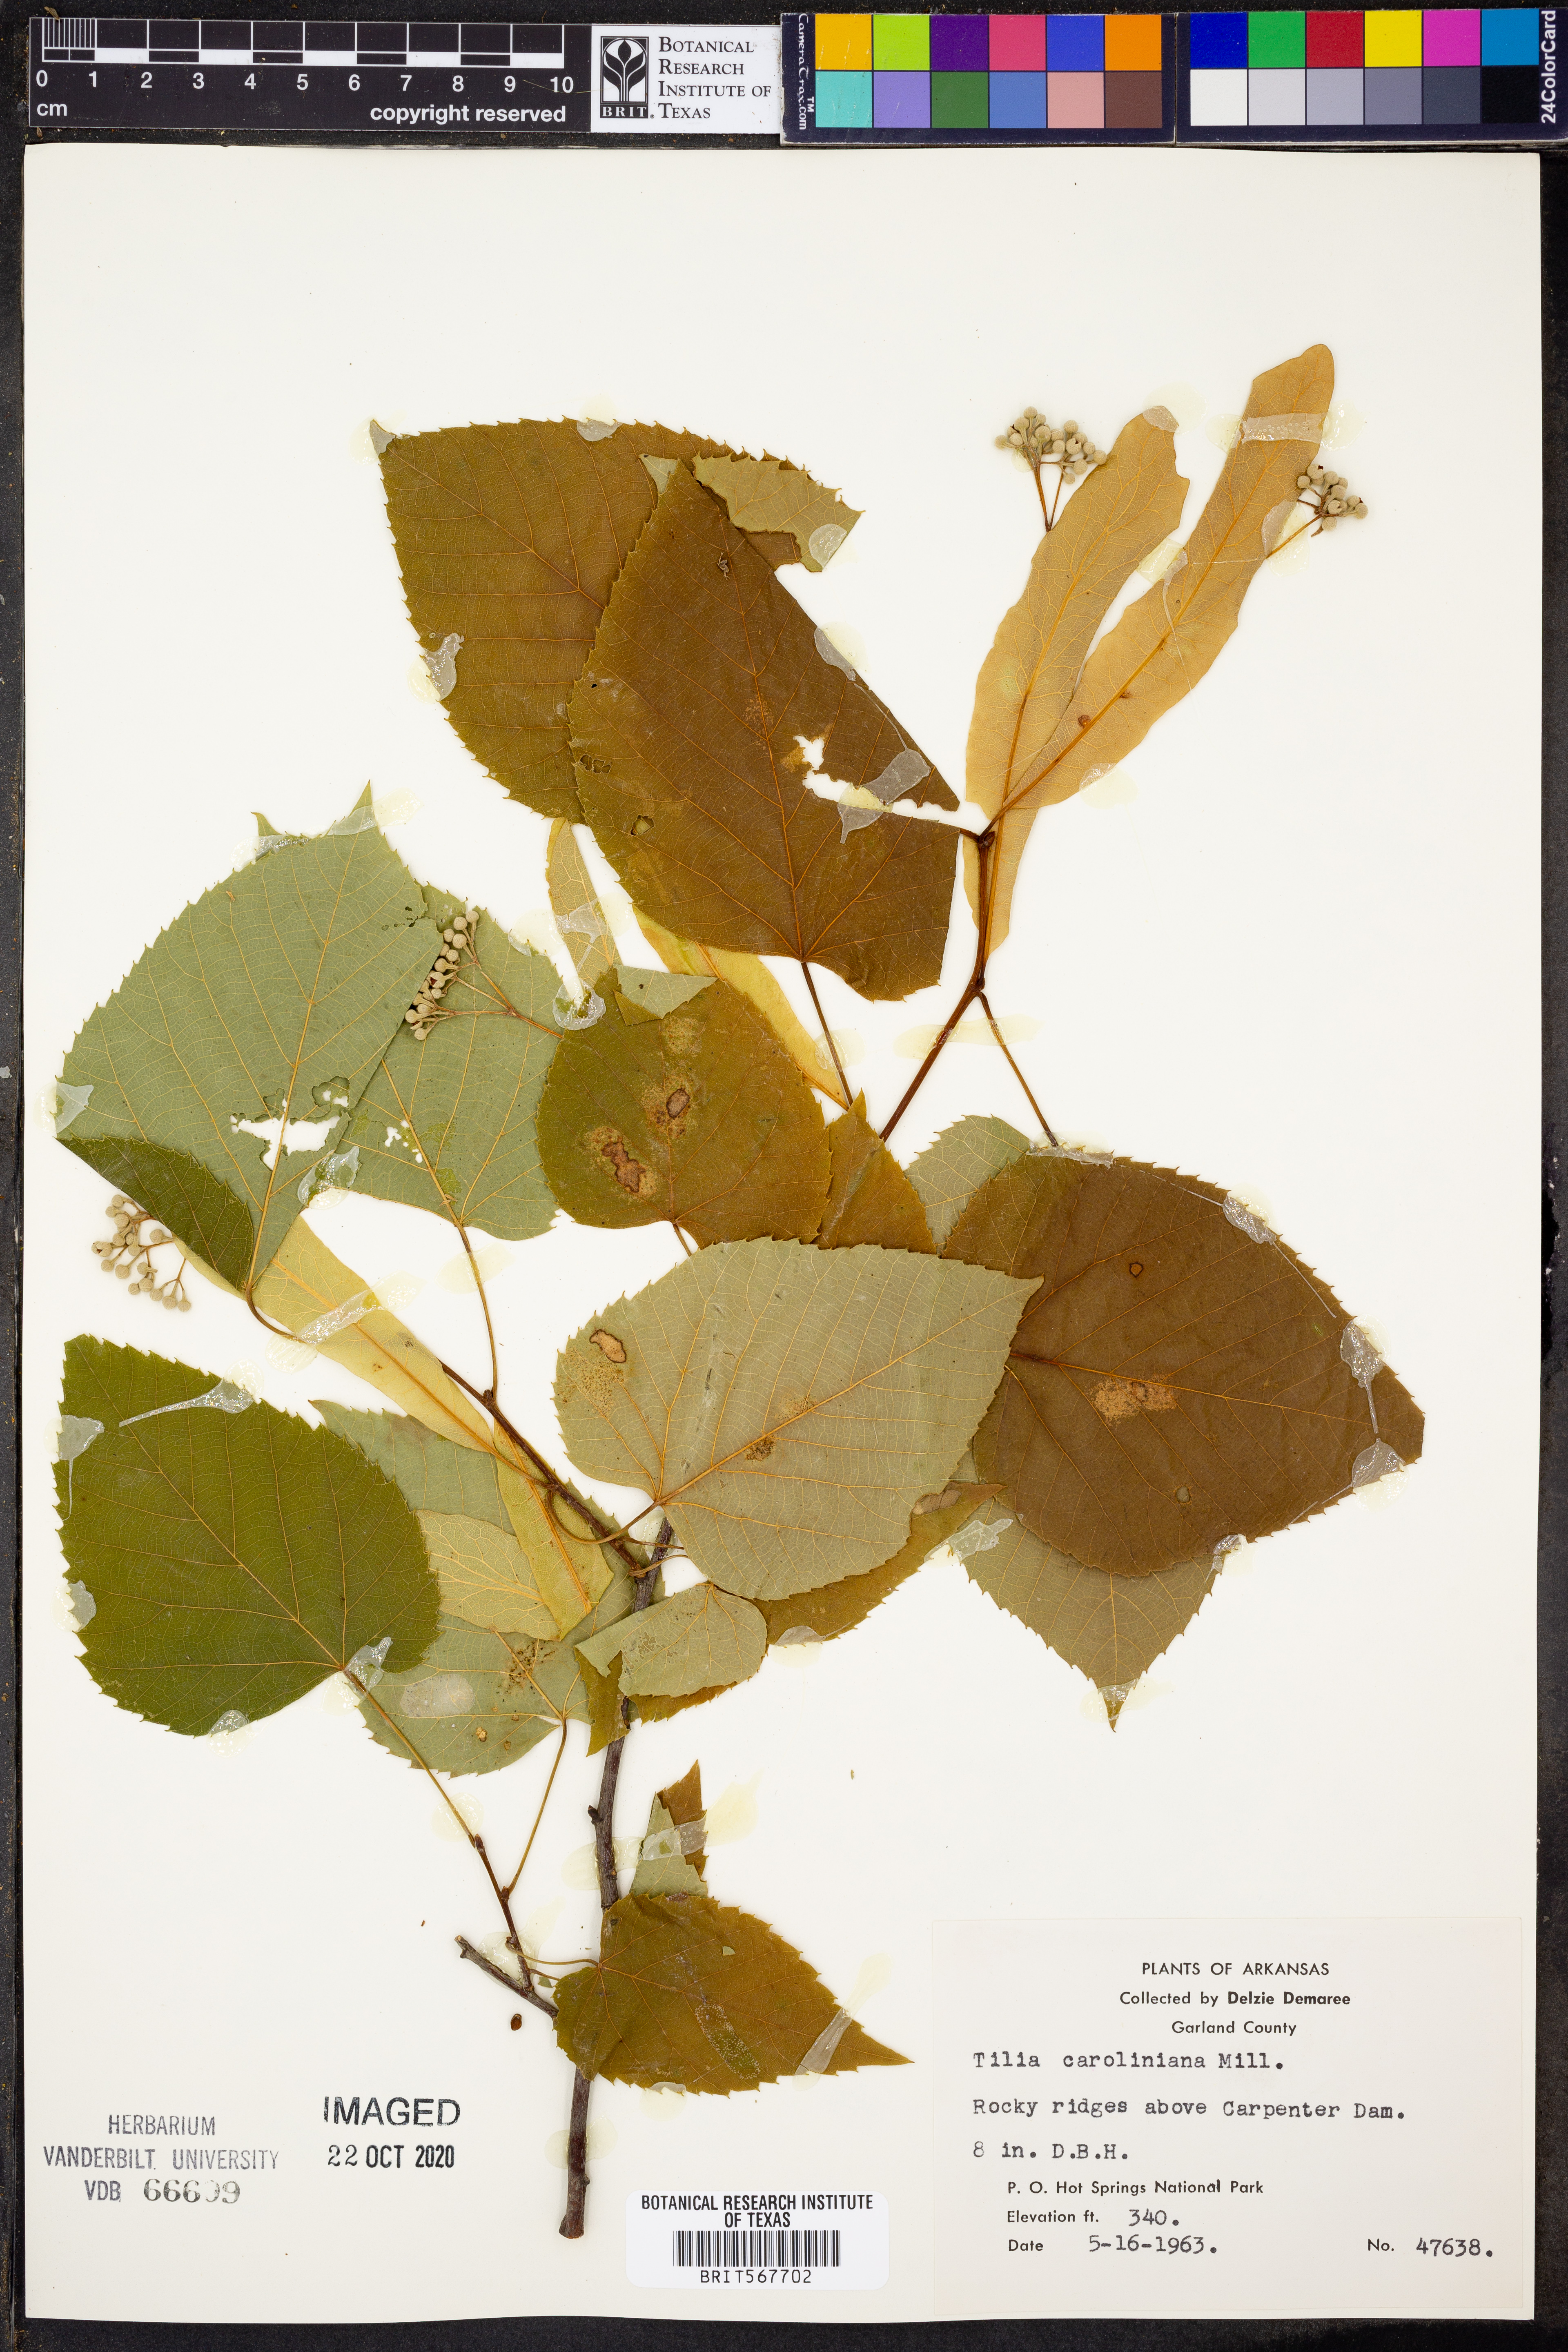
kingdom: Plantae
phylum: Tracheophyta
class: Magnoliopsida
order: Malvales
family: Malvaceae
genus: Tilia
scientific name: Tilia americana
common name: Basswood
